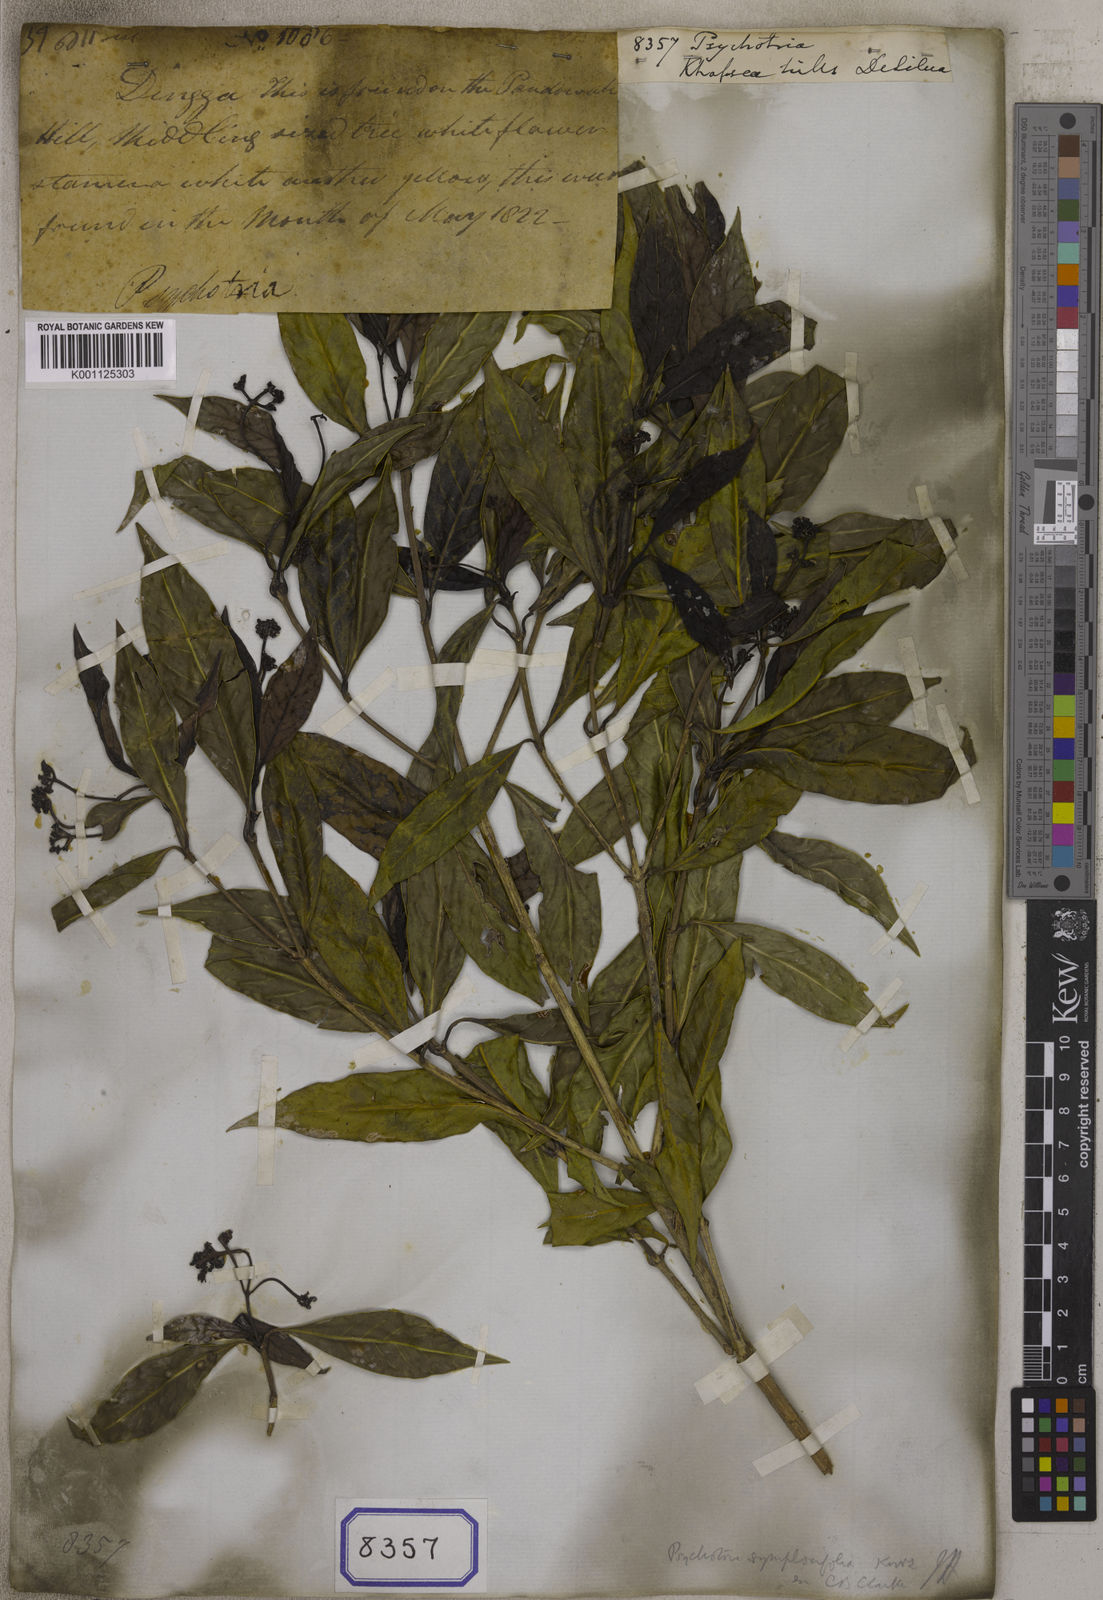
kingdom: Plantae
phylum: Tracheophyta
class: Magnoliopsida
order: Gentianales
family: Rubiaceae
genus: Psychotria
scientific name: Psychotria
